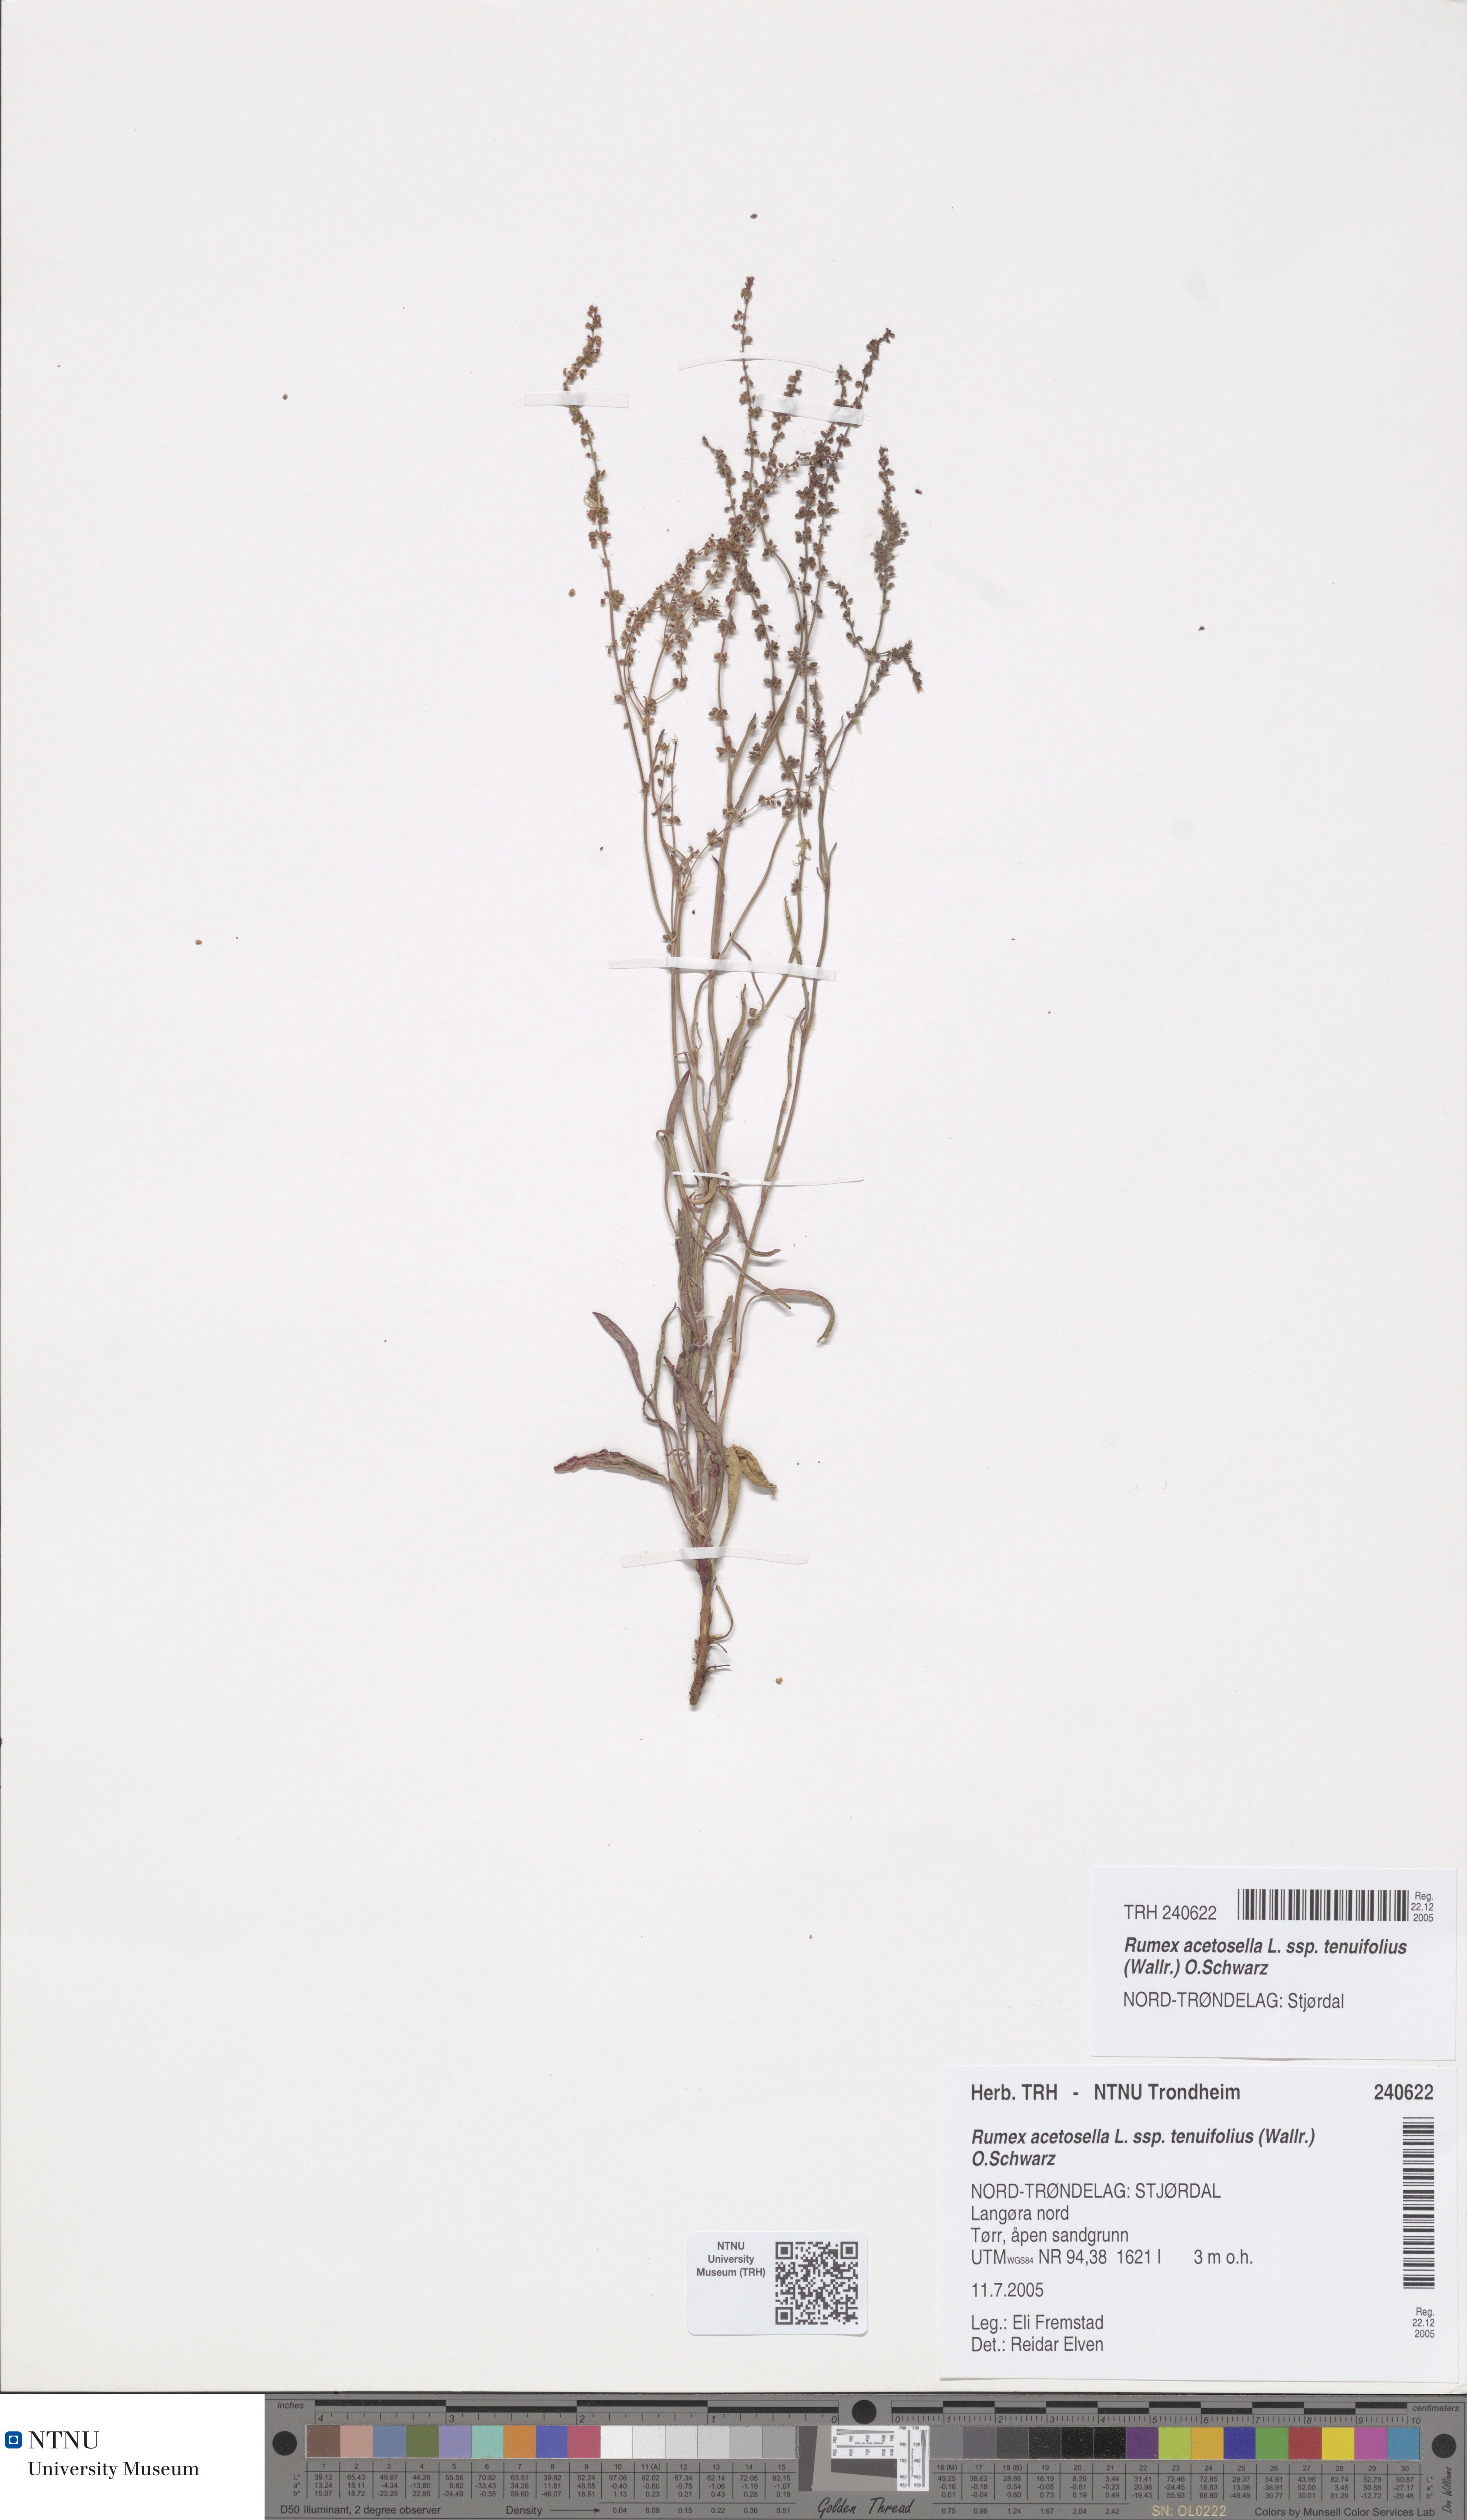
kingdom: Plantae
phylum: Tracheophyta
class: Magnoliopsida
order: Caryophyllales
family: Polygonaceae
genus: Rumex
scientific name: Rumex acetosella
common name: Common sheep sorrel
